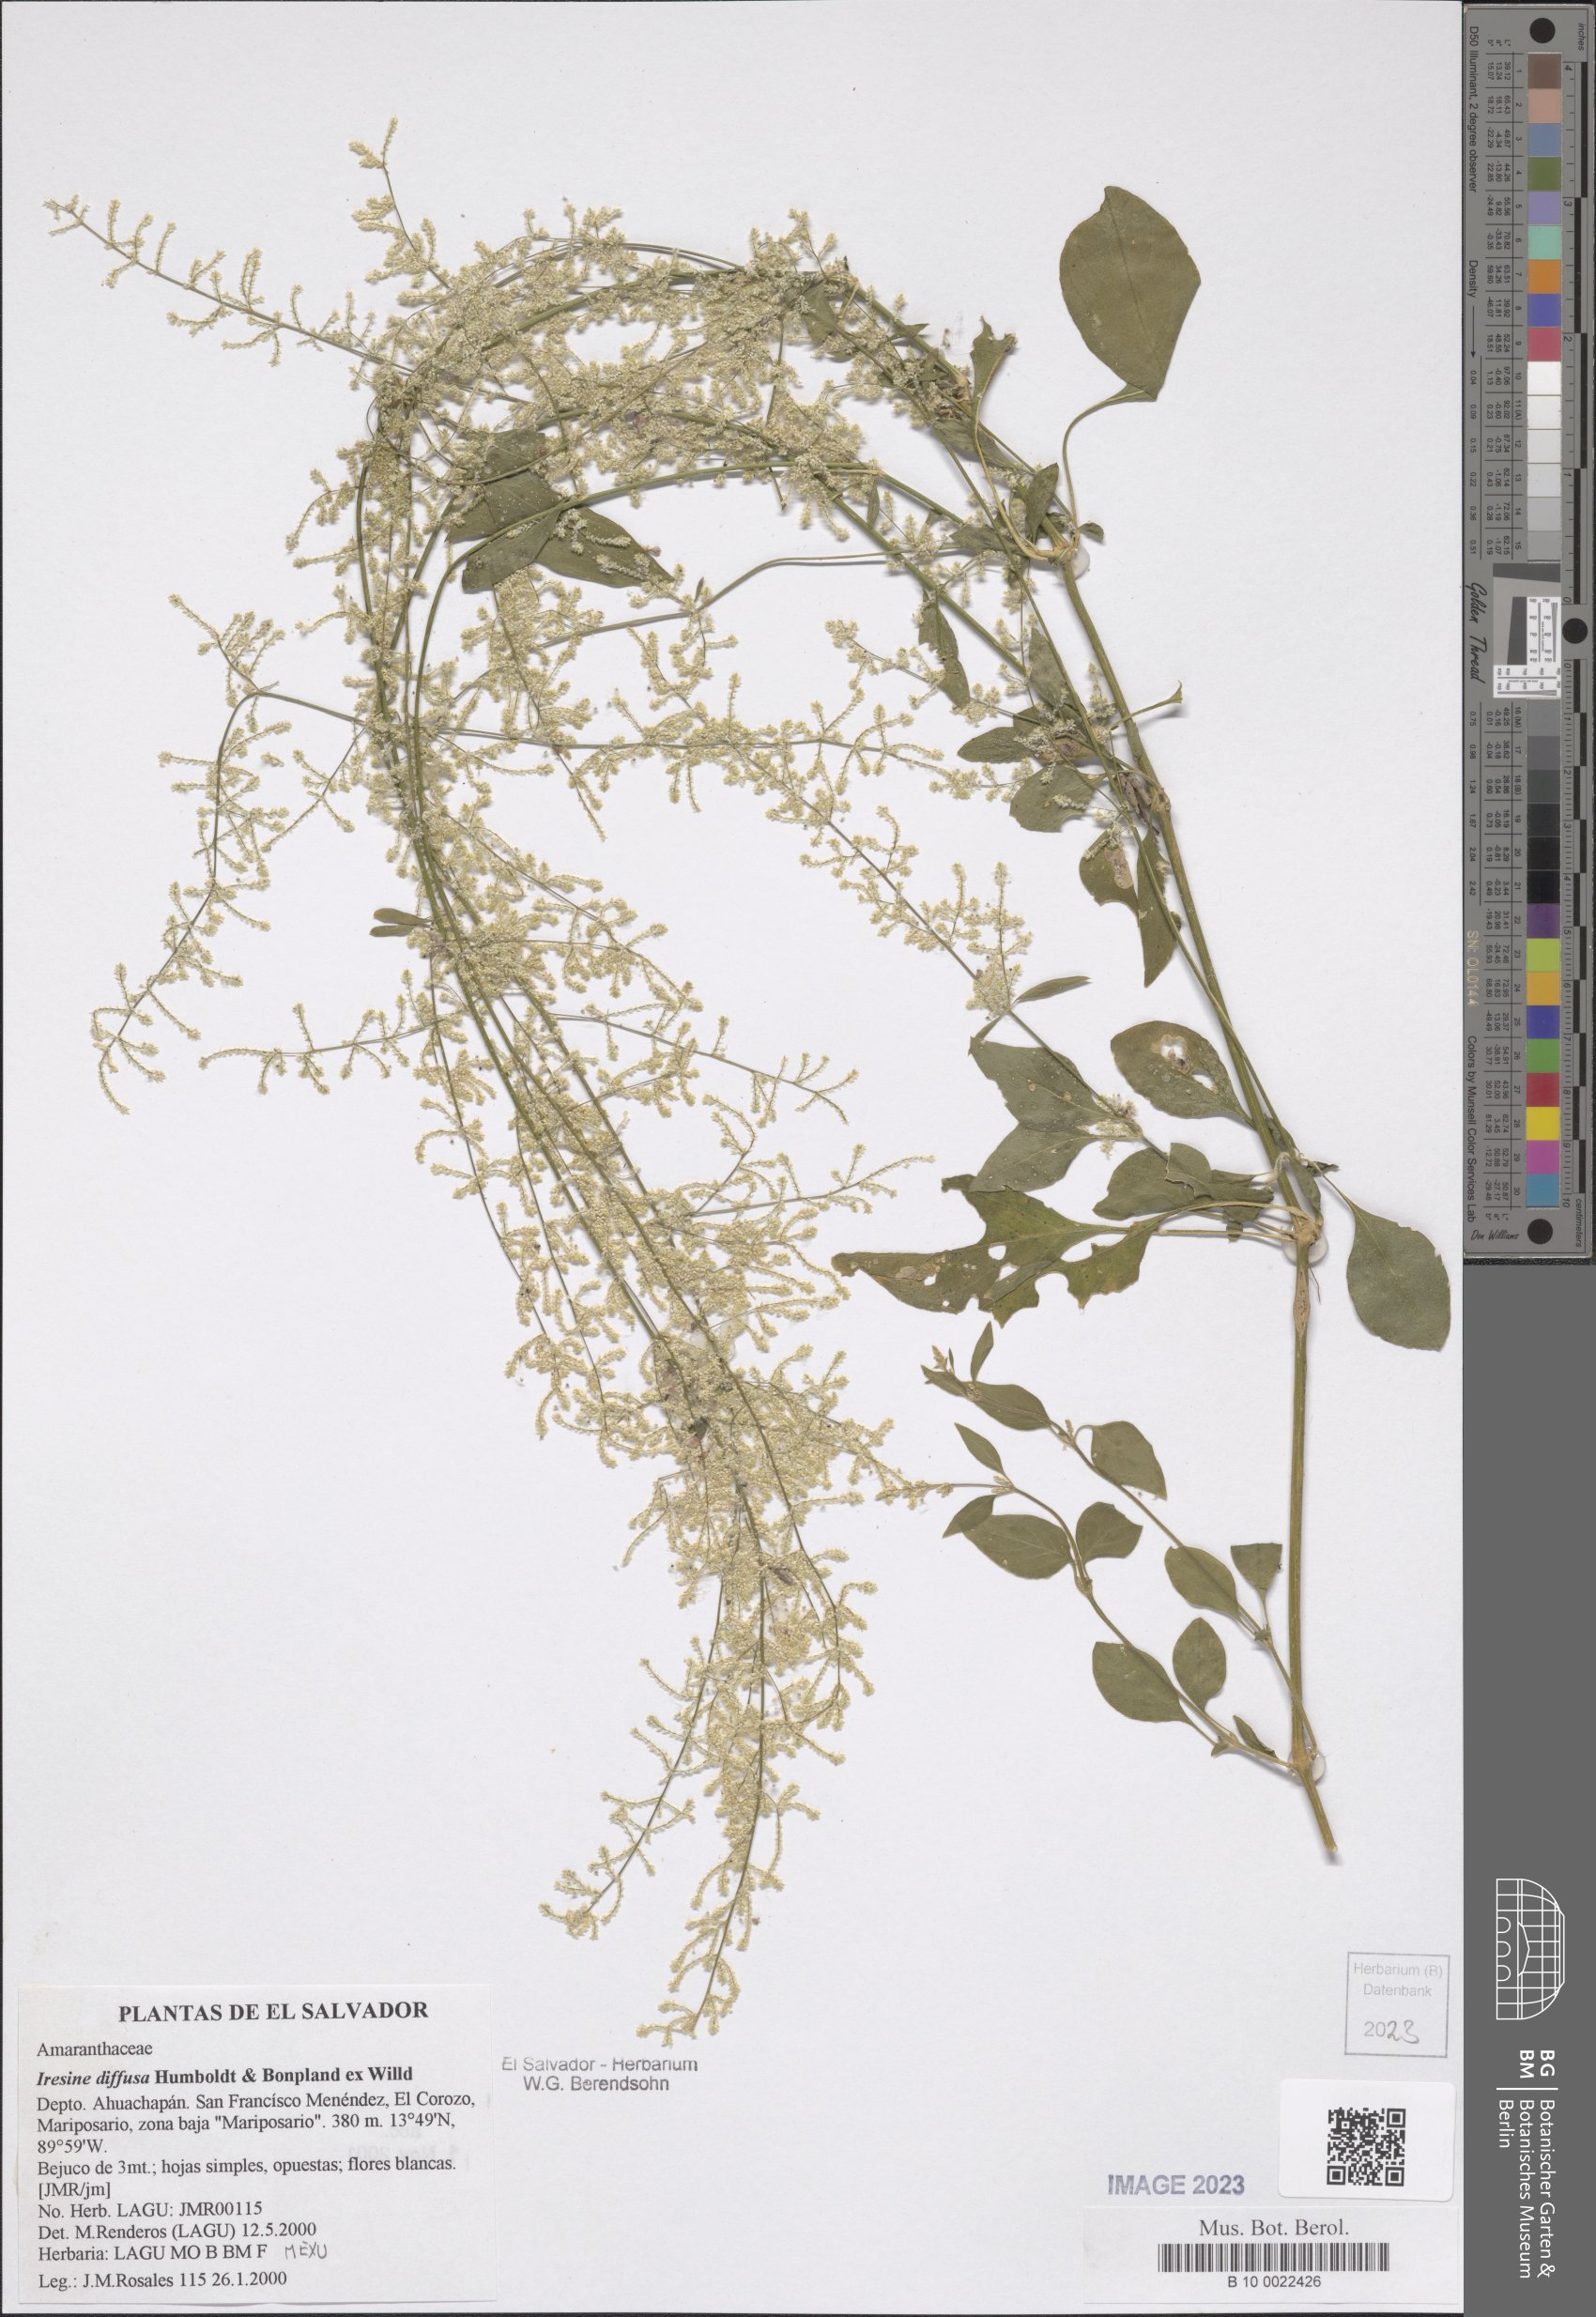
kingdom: Plantae
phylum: Tracheophyta
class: Magnoliopsida
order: Caryophyllales
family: Amaranthaceae
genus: Iresine
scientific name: Iresine diffusa
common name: Juba's-bush
